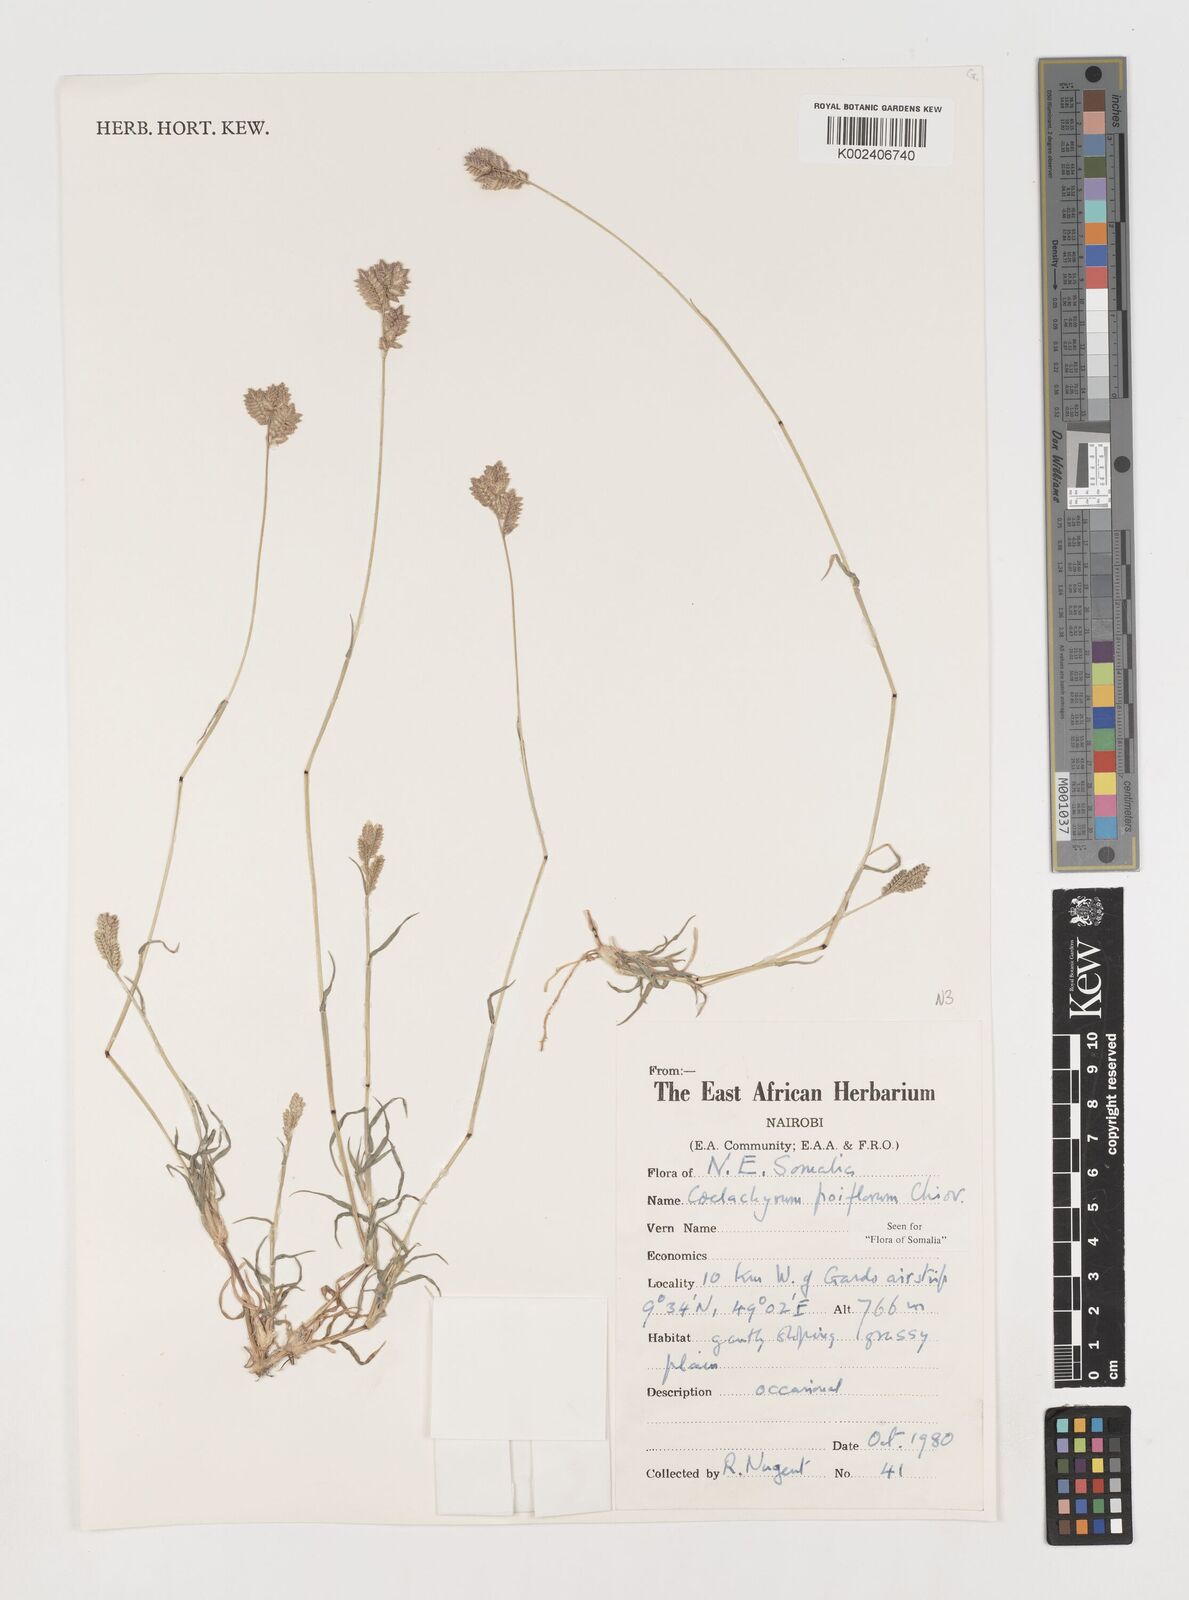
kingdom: Plantae
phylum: Tracheophyta
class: Liliopsida
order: Poales
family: Poaceae
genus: Coelachyrum
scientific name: Coelachyrum poiflorum
